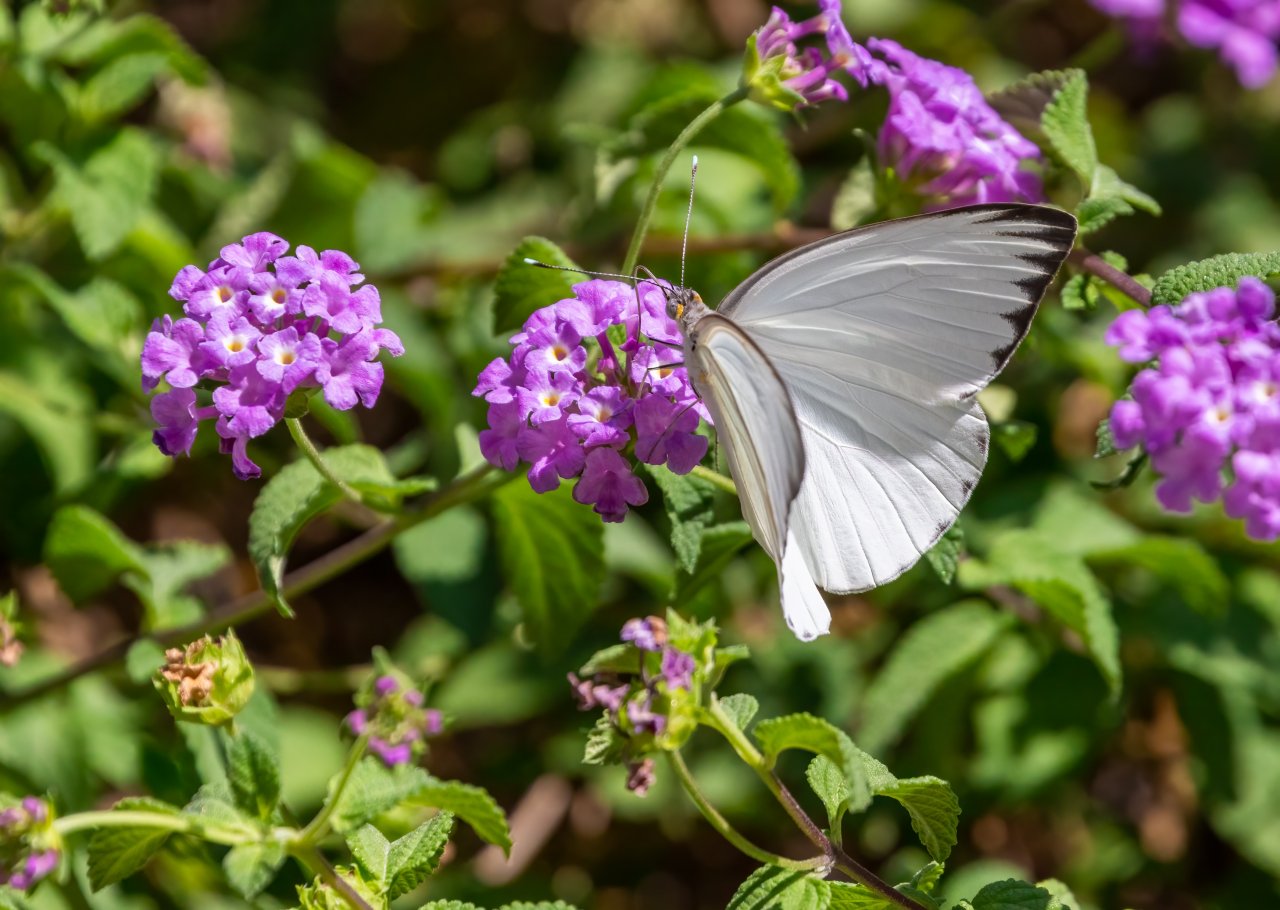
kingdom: Animalia
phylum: Arthropoda
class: Insecta
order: Lepidoptera
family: Pieridae
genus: Ascia
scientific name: Ascia monuste
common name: Great Southern White
